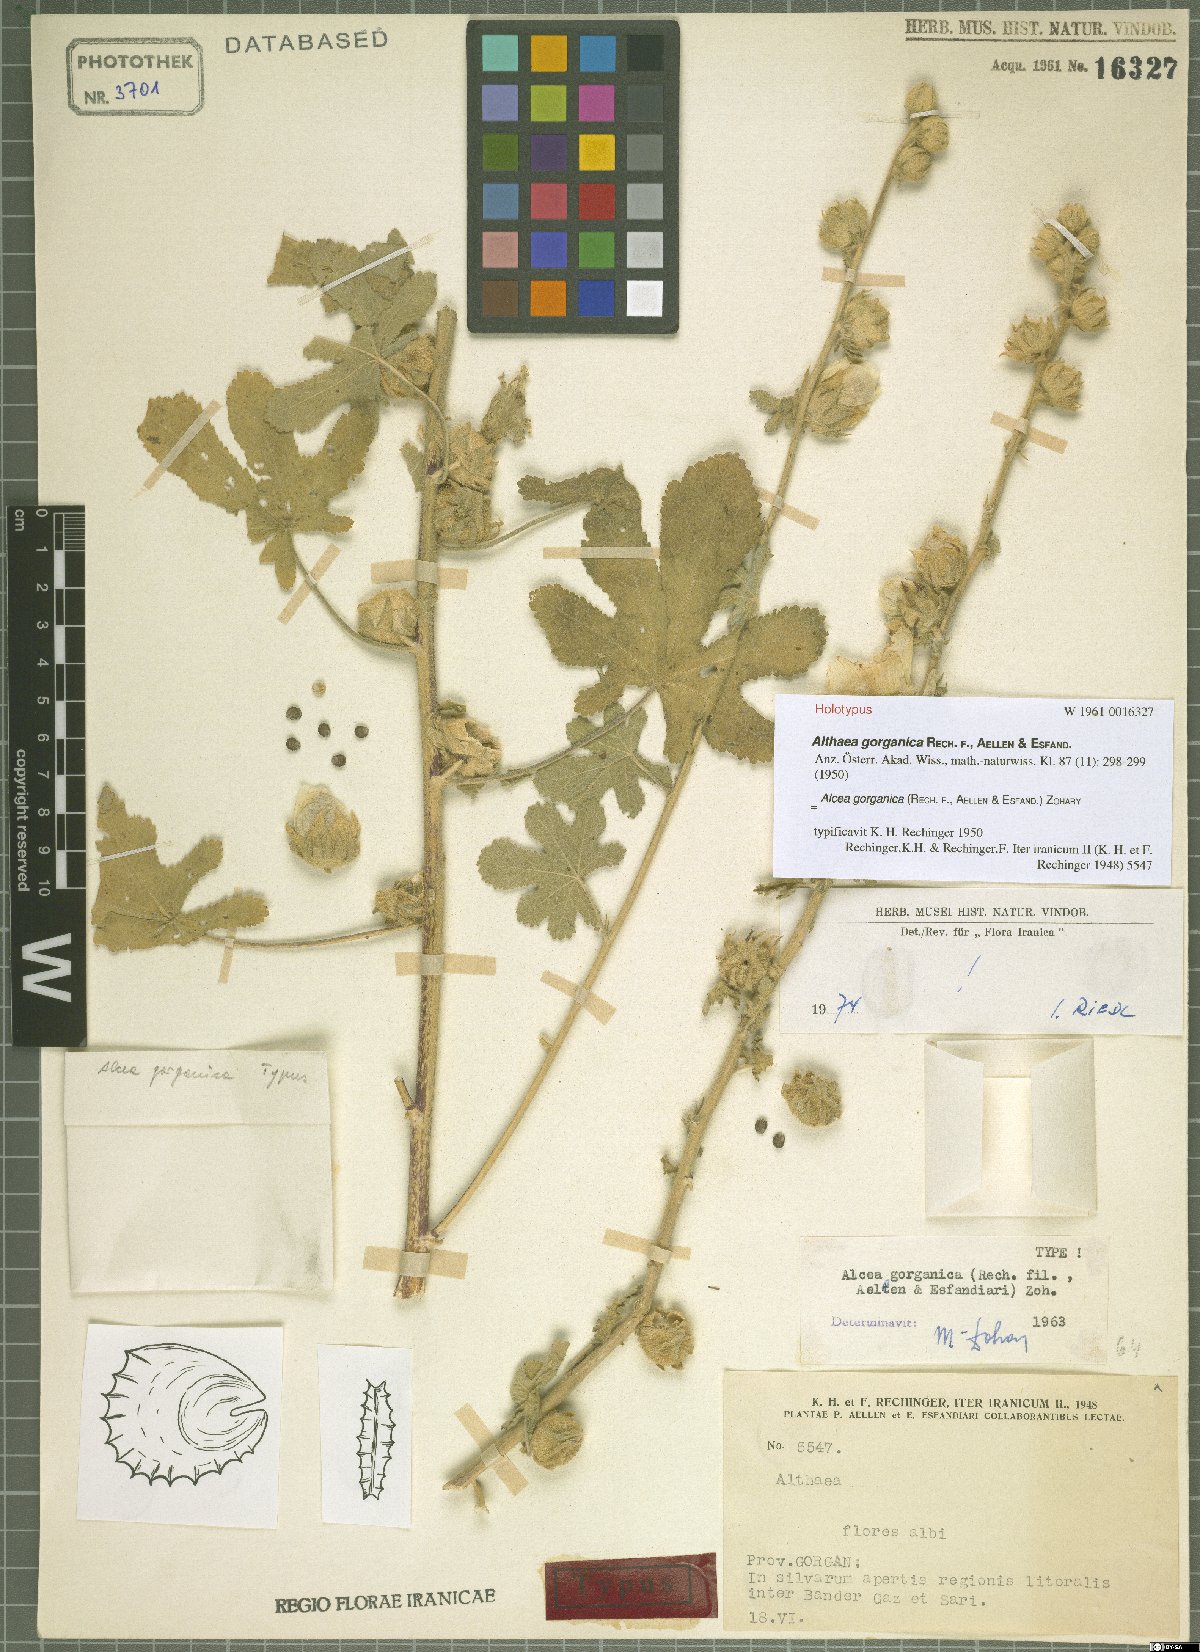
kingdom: Plantae
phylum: Tracheophyta
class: Magnoliopsida
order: Malvales
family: Malvaceae
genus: Alcea
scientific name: Alcea gorganica
